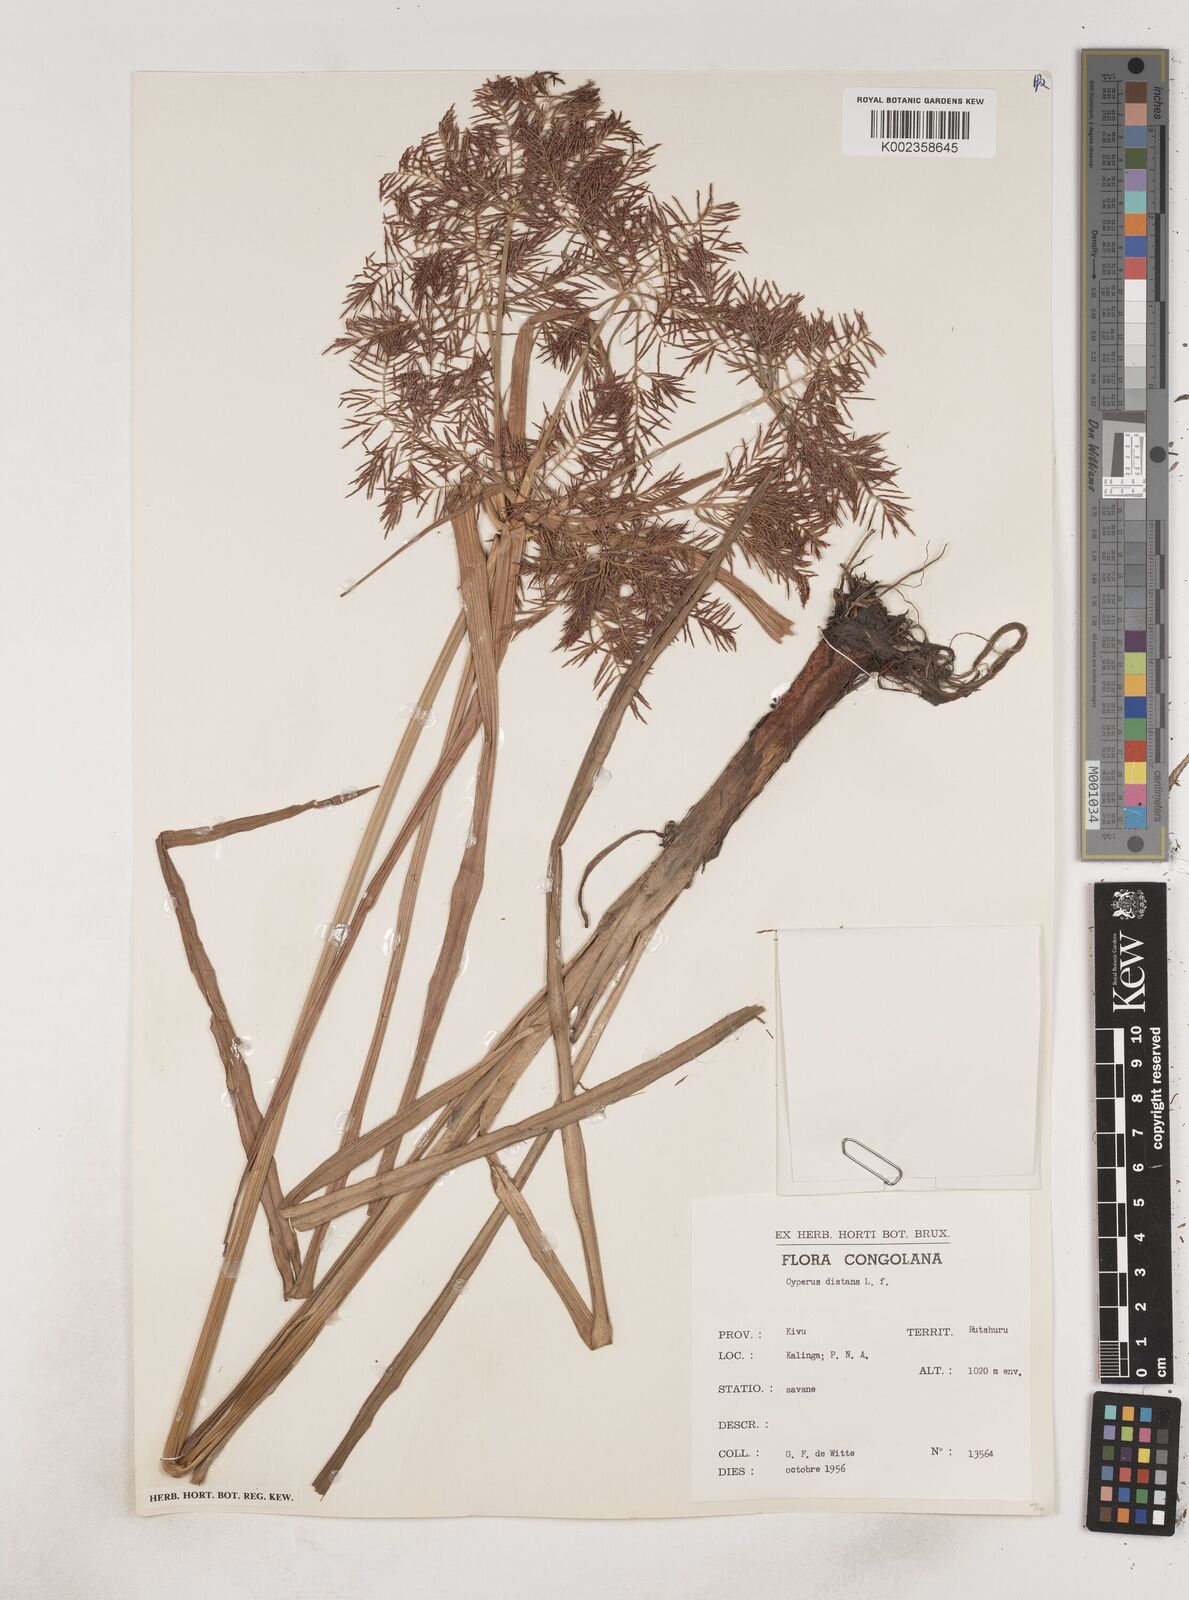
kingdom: Plantae
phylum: Tracheophyta
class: Liliopsida
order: Poales
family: Cyperaceae
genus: Cyperus
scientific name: Cyperus distans
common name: Slender cyperus
